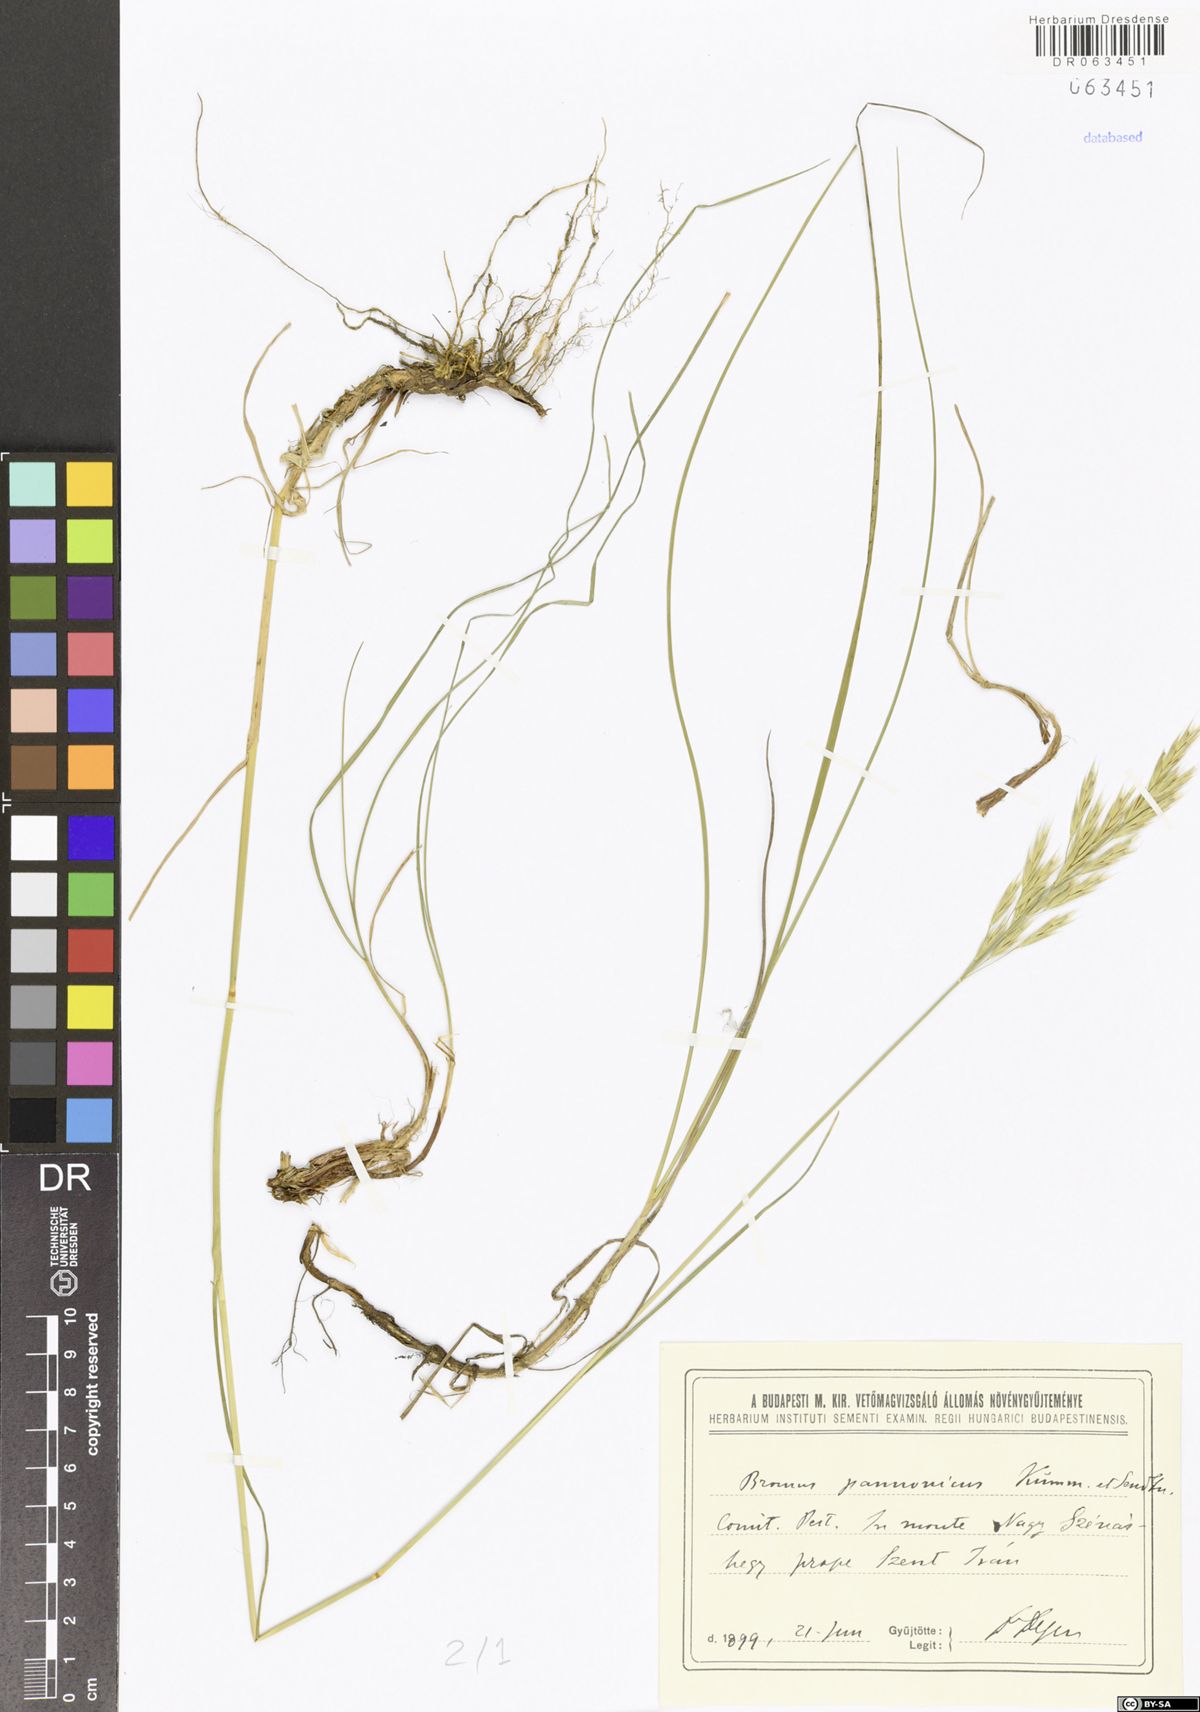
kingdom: Plantae
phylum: Tracheophyta
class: Liliopsida
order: Poales
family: Poaceae
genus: Bromus
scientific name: Bromus pannonicus
